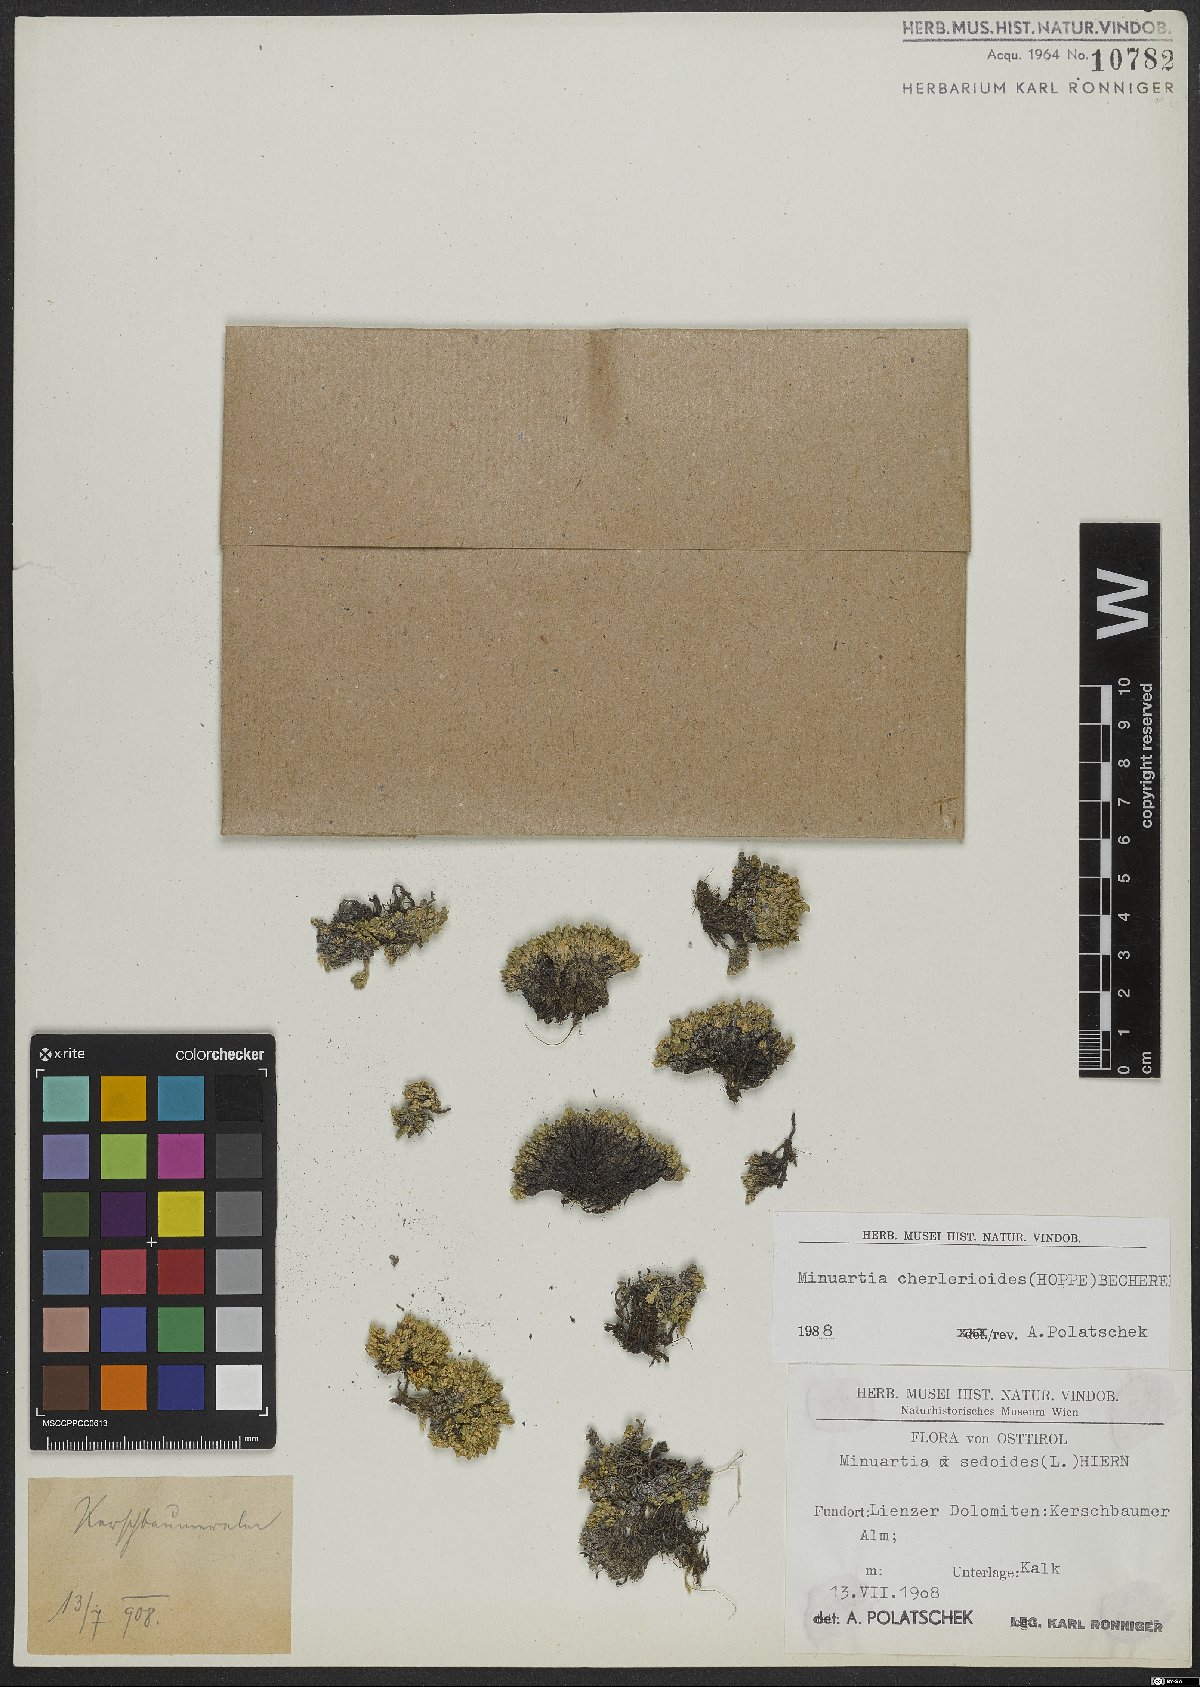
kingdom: Plantae
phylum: Tracheophyta
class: Magnoliopsida
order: Caryophyllales
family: Caryophyllaceae
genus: Facchinia
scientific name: Facchinia cherlerioides
